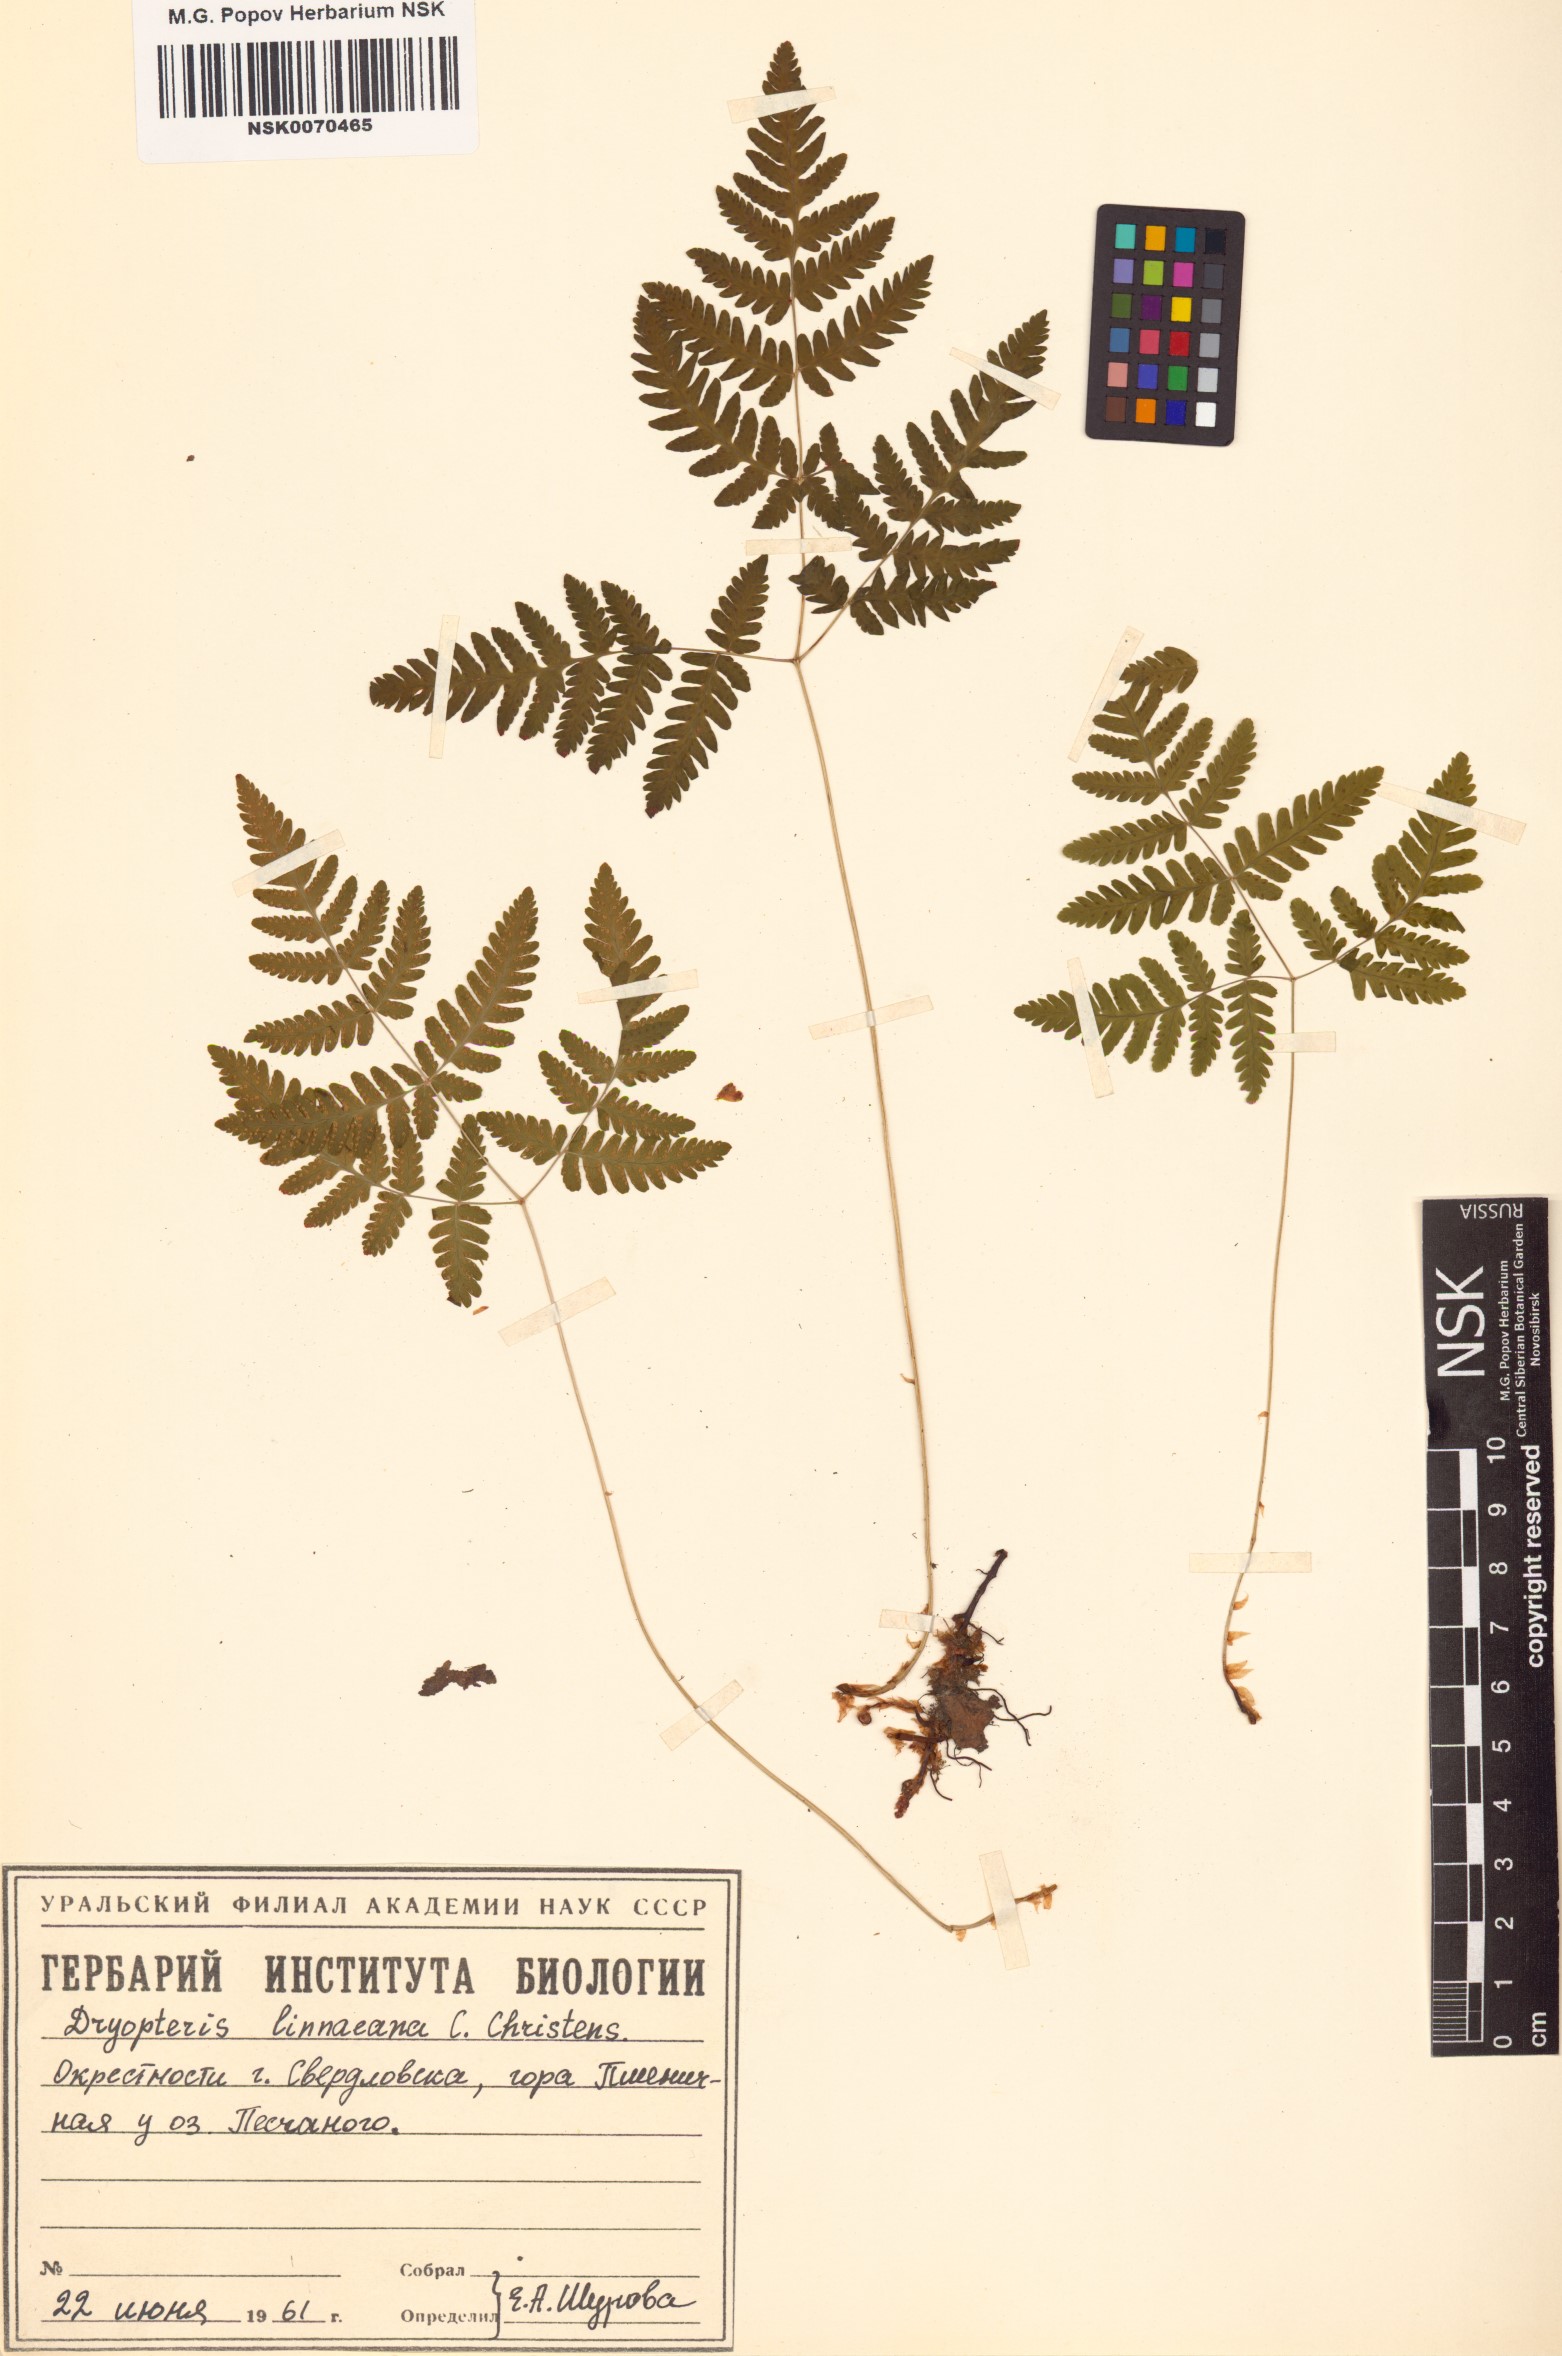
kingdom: Plantae
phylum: Tracheophyta
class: Polypodiopsida
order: Polypodiales
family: Cystopteridaceae
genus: Gymnocarpium
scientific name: Gymnocarpium dryopteris
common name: Oak fern
